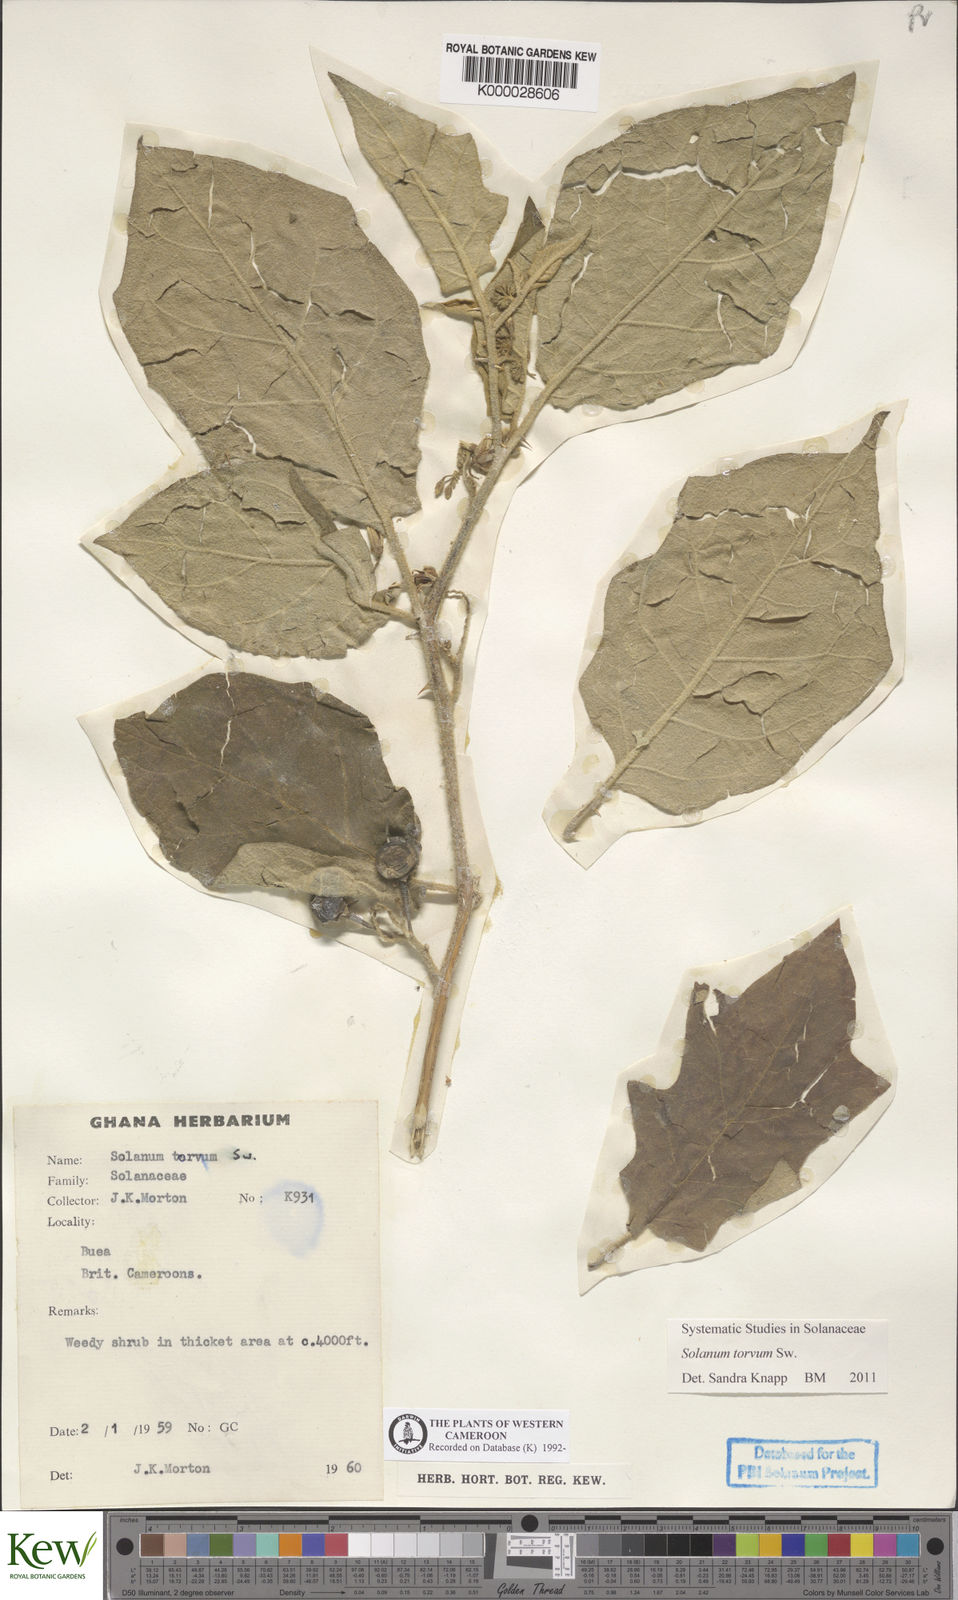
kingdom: Plantae
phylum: Tracheophyta
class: Magnoliopsida
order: Solanales
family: Solanaceae
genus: Solanum
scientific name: Solanum torvum
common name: Turkey berry
